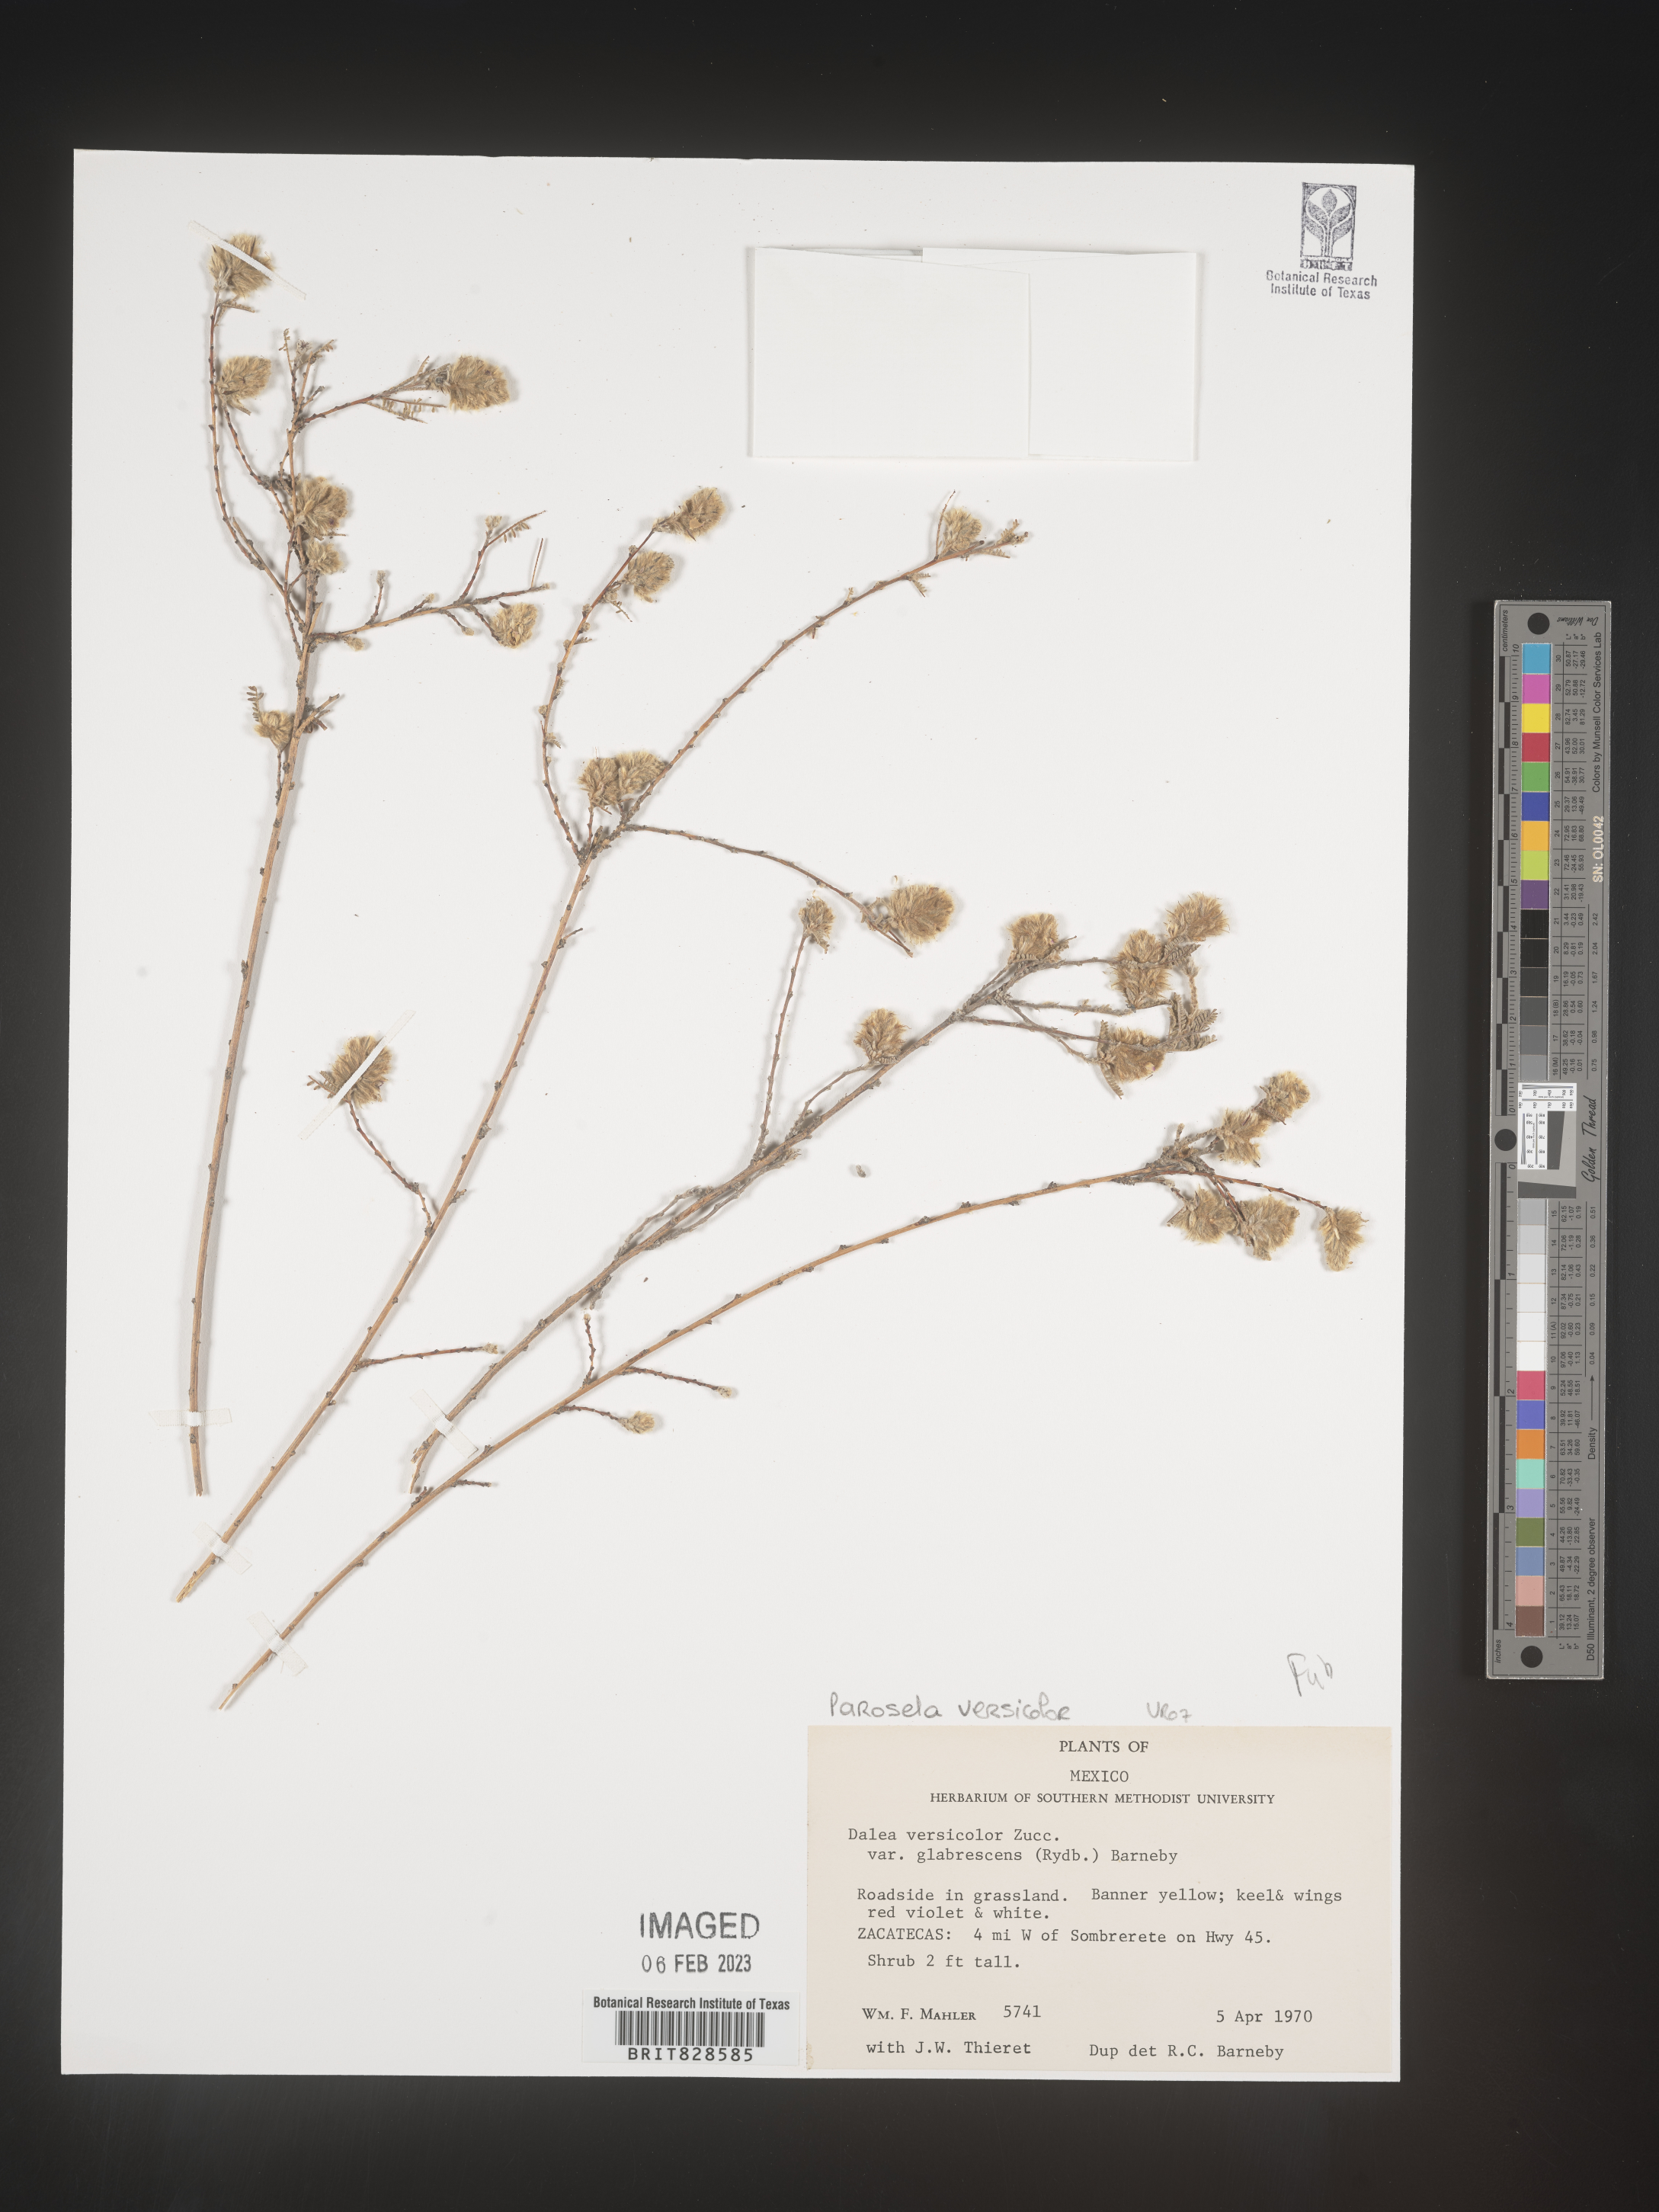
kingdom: Plantae
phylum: Tracheophyta
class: Magnoliopsida
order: Fabales
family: Fabaceae
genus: Dalea
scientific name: Dalea versicolor
